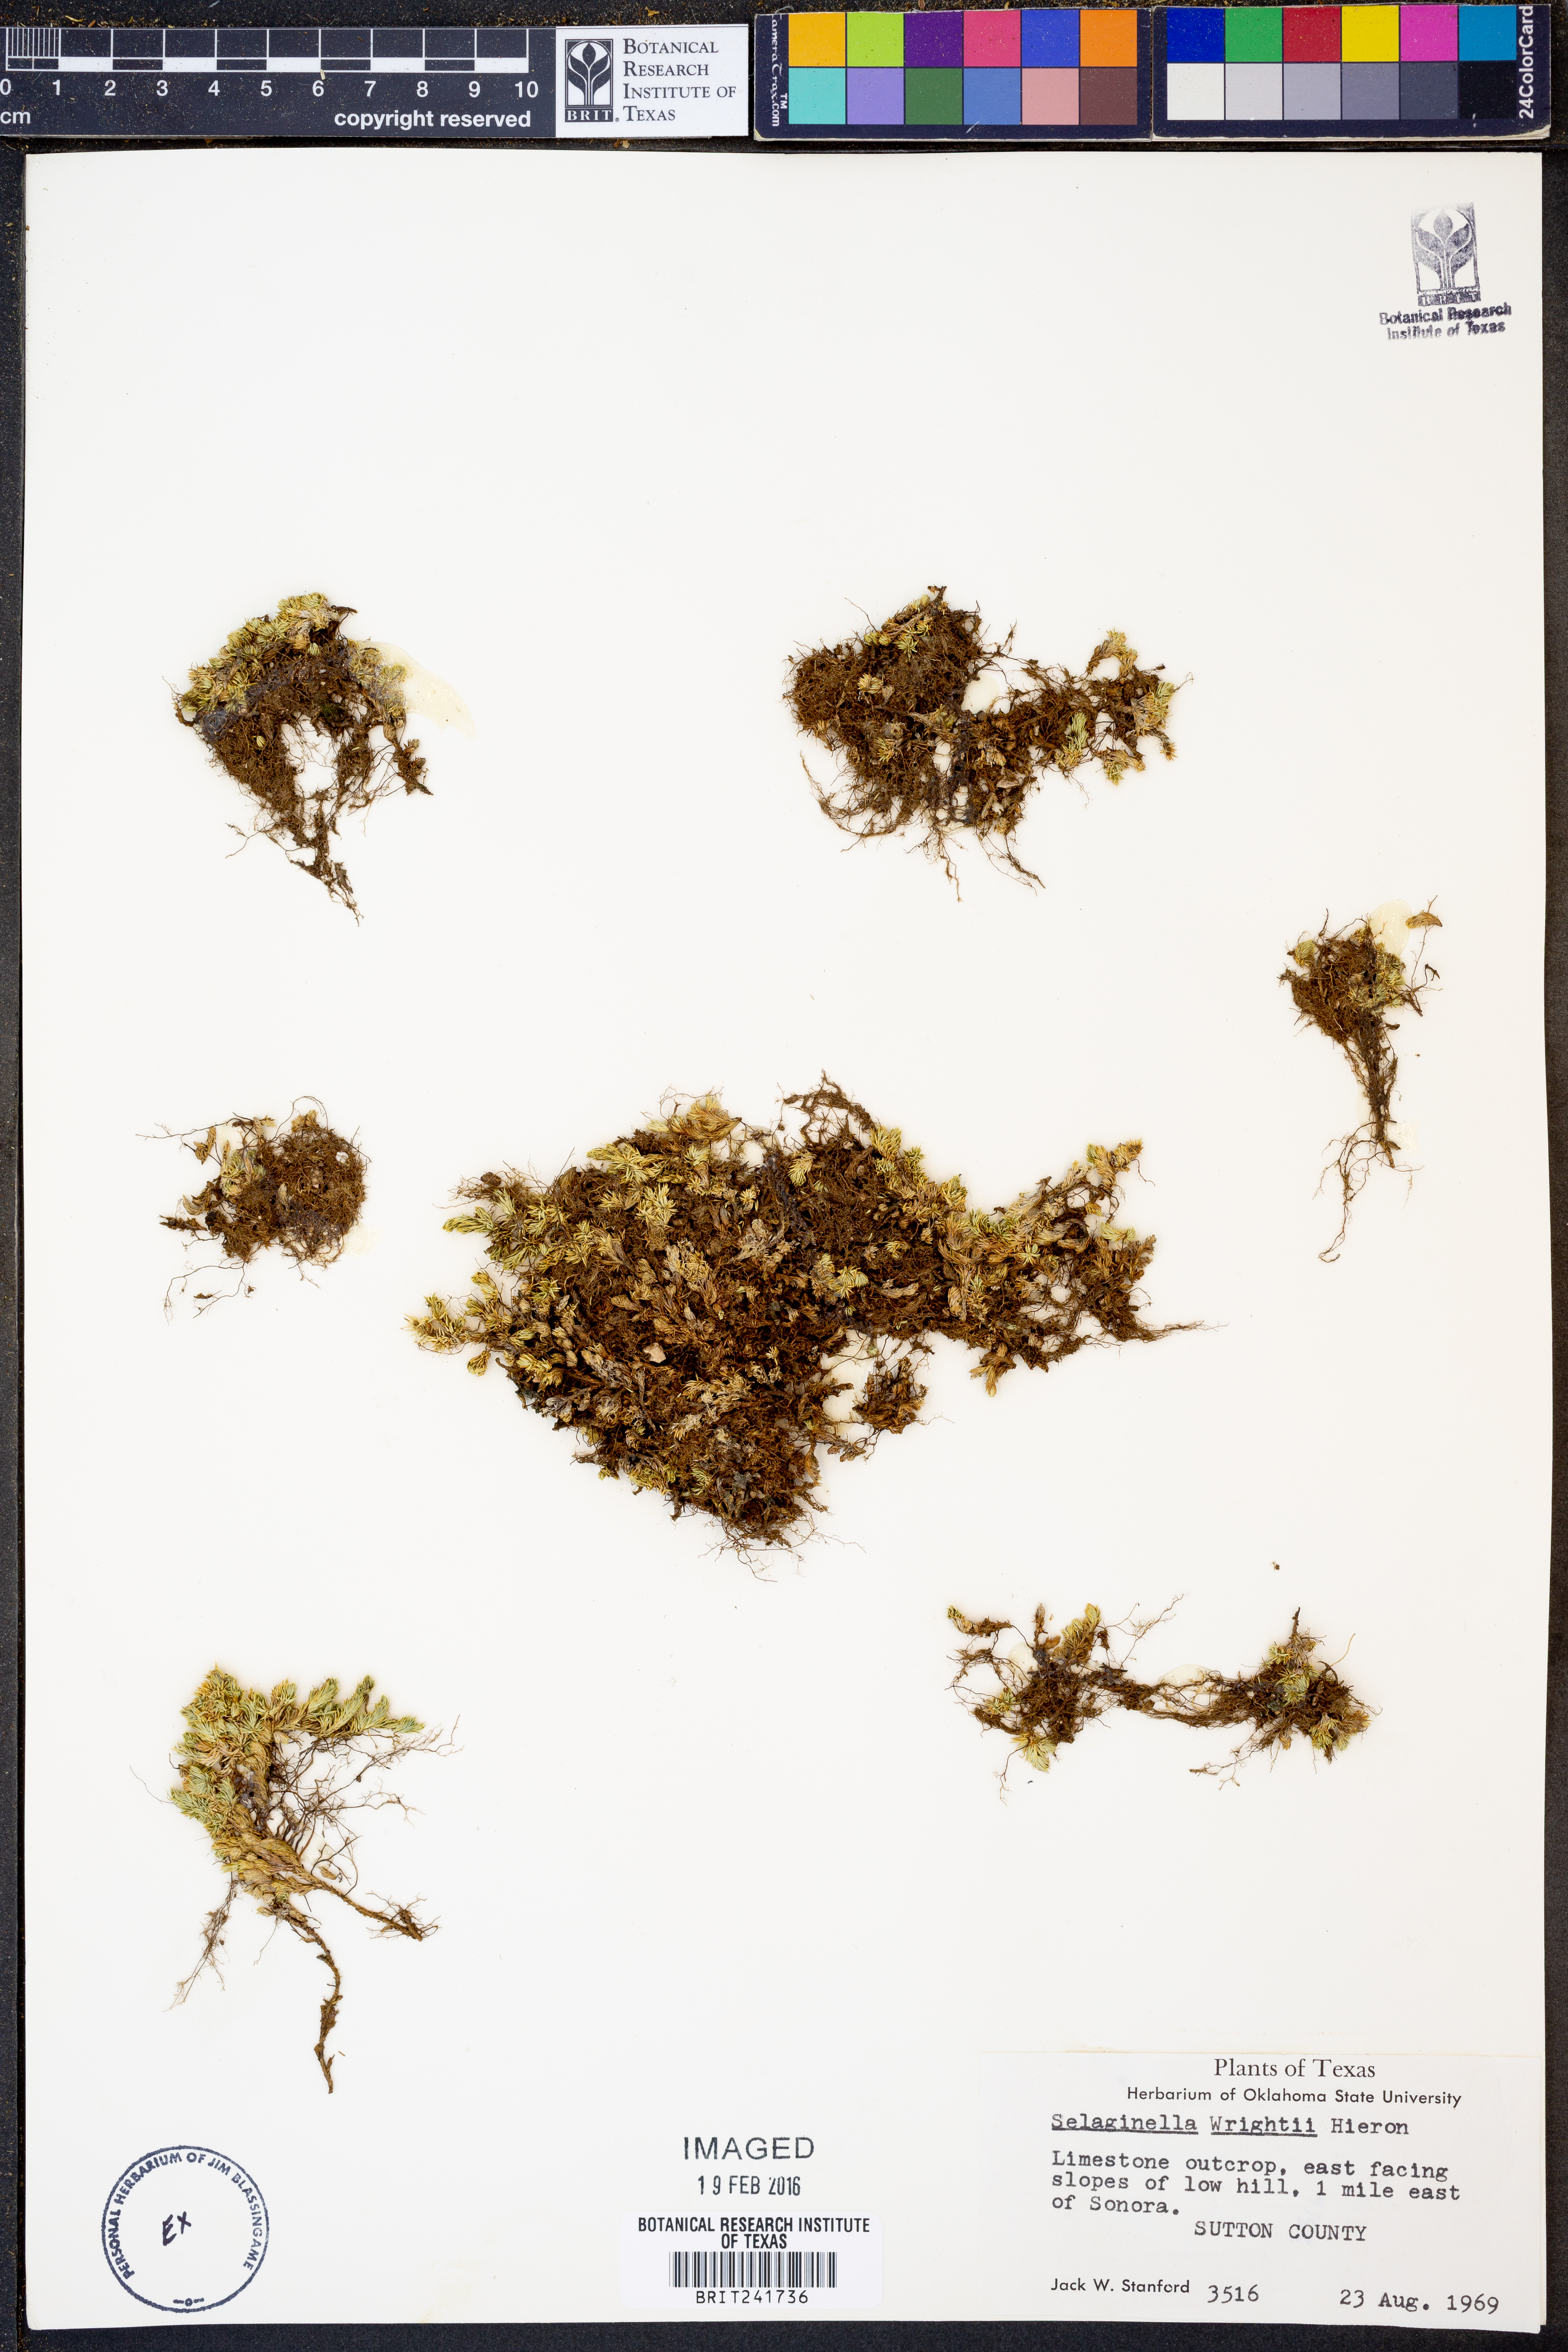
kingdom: Plantae
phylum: Tracheophyta
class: Lycopodiopsida
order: Selaginellales
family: Selaginellaceae
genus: Selaginella
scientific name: Selaginella wrightii
